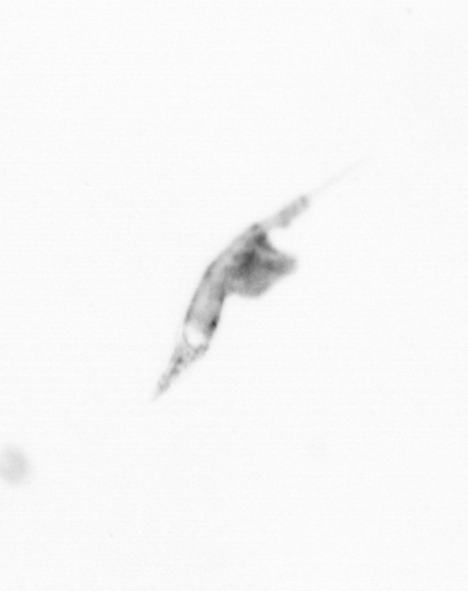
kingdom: Animalia
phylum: Arthropoda
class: Copepoda
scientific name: Copepoda
